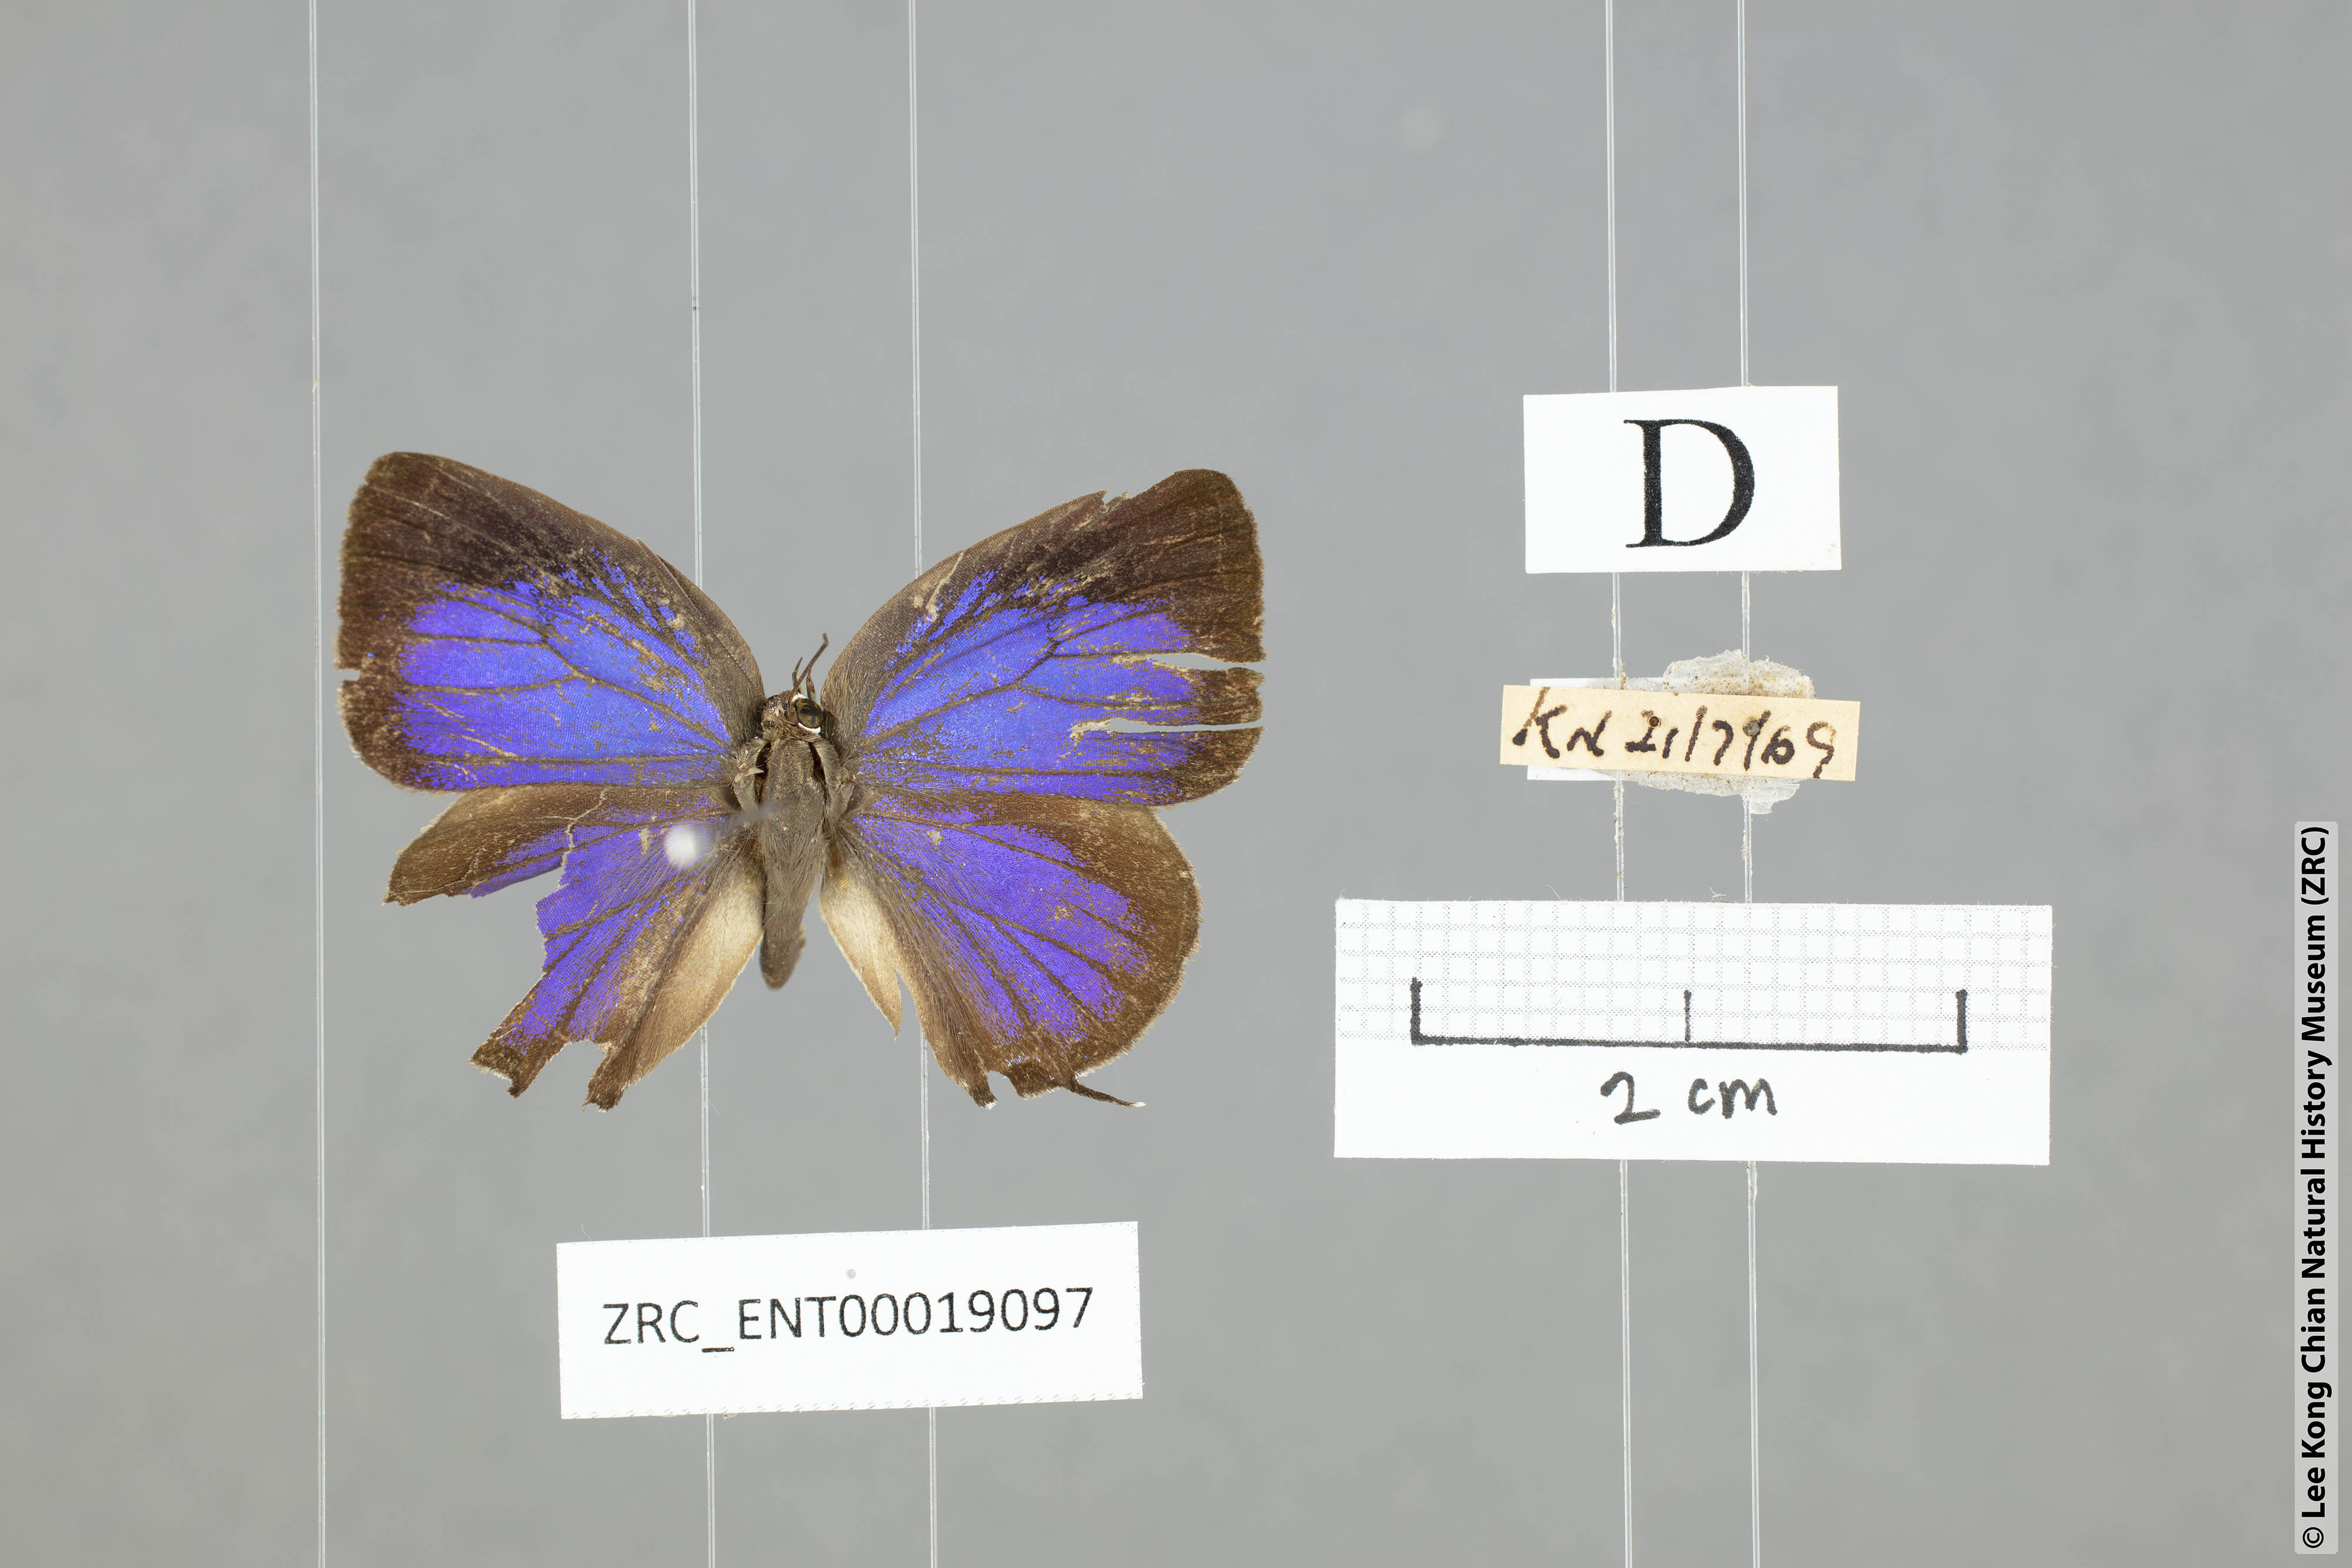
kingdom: Animalia
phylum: Arthropoda
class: Insecta
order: Lepidoptera
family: Lycaenidae
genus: Arhopala
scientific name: Arhopala alitaeus
